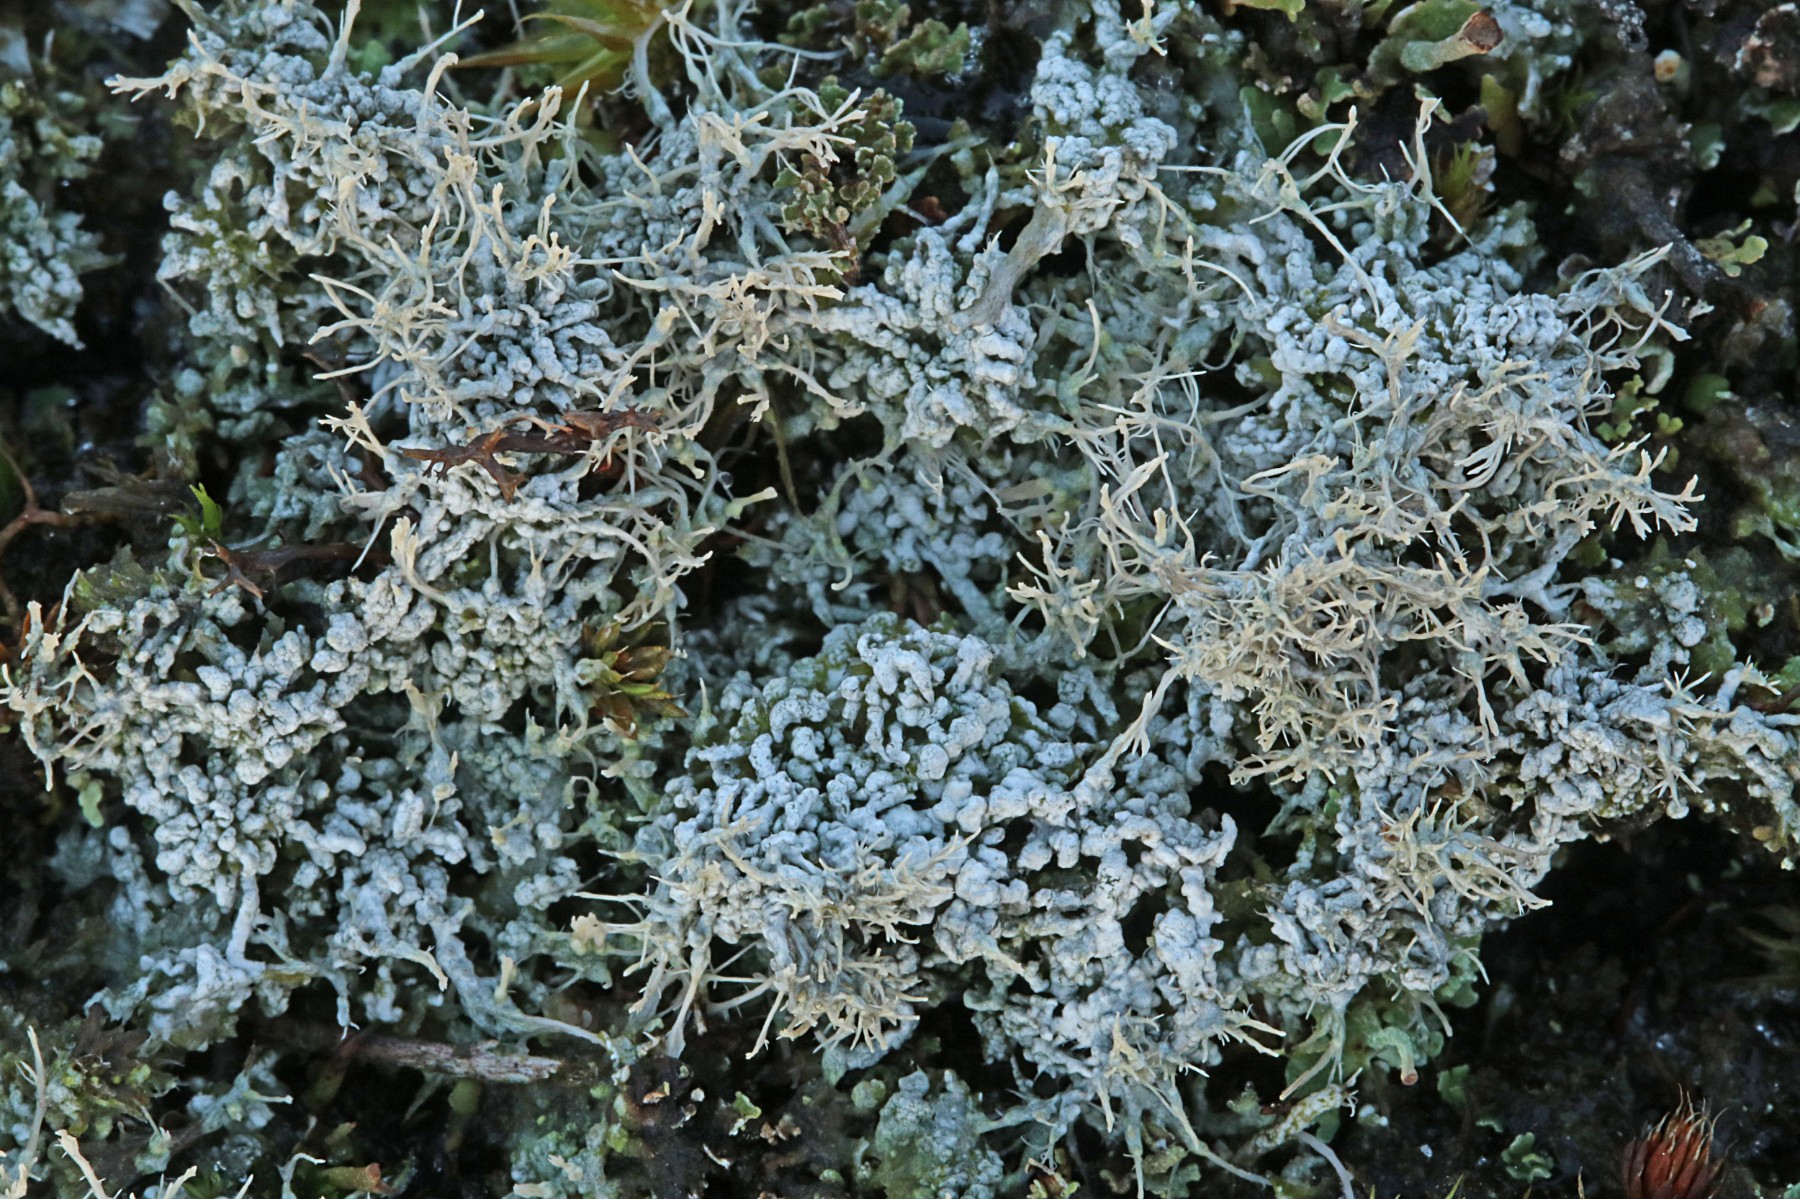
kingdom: Fungi
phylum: Ascomycota
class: Lecanoromycetes
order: Pertusariales
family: Ochrolechiaceae
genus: Ochrolechia
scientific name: Ochrolechia frigida
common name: fjeld-blegskivelav
